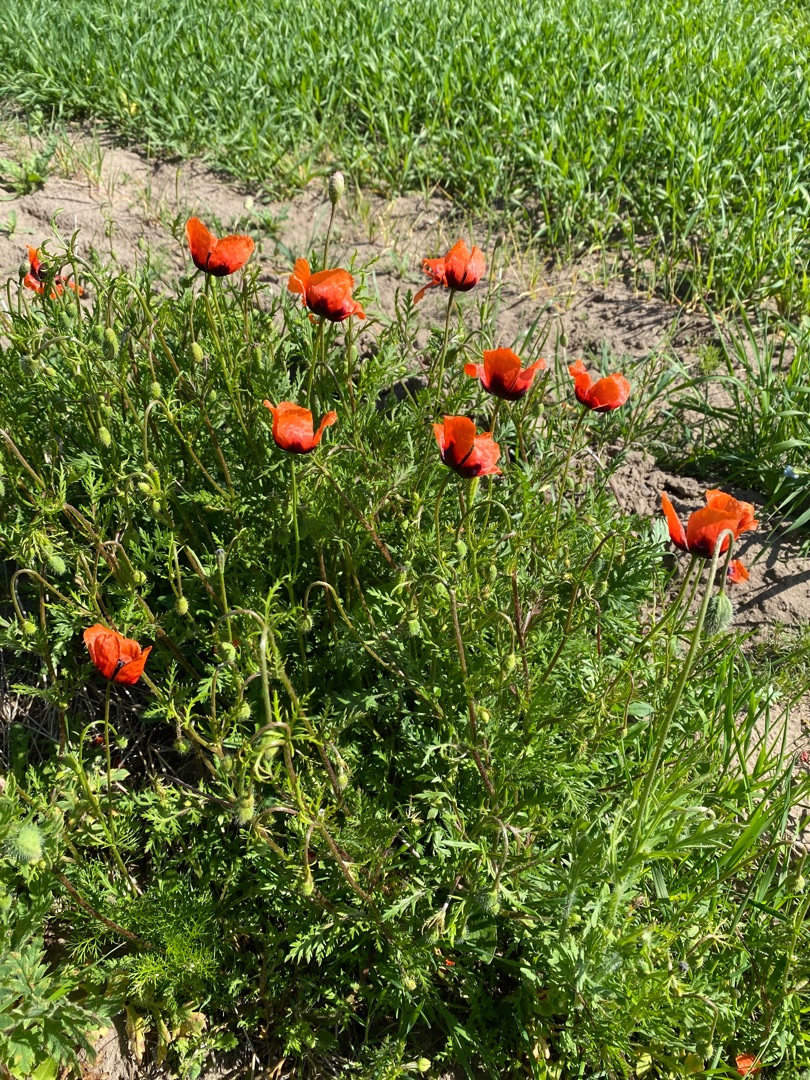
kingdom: Plantae
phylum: Tracheophyta
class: Magnoliopsida
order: Ranunculales
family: Papaveraceae
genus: Roemeria
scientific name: Roemeria argemone
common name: Kølle-valmue
